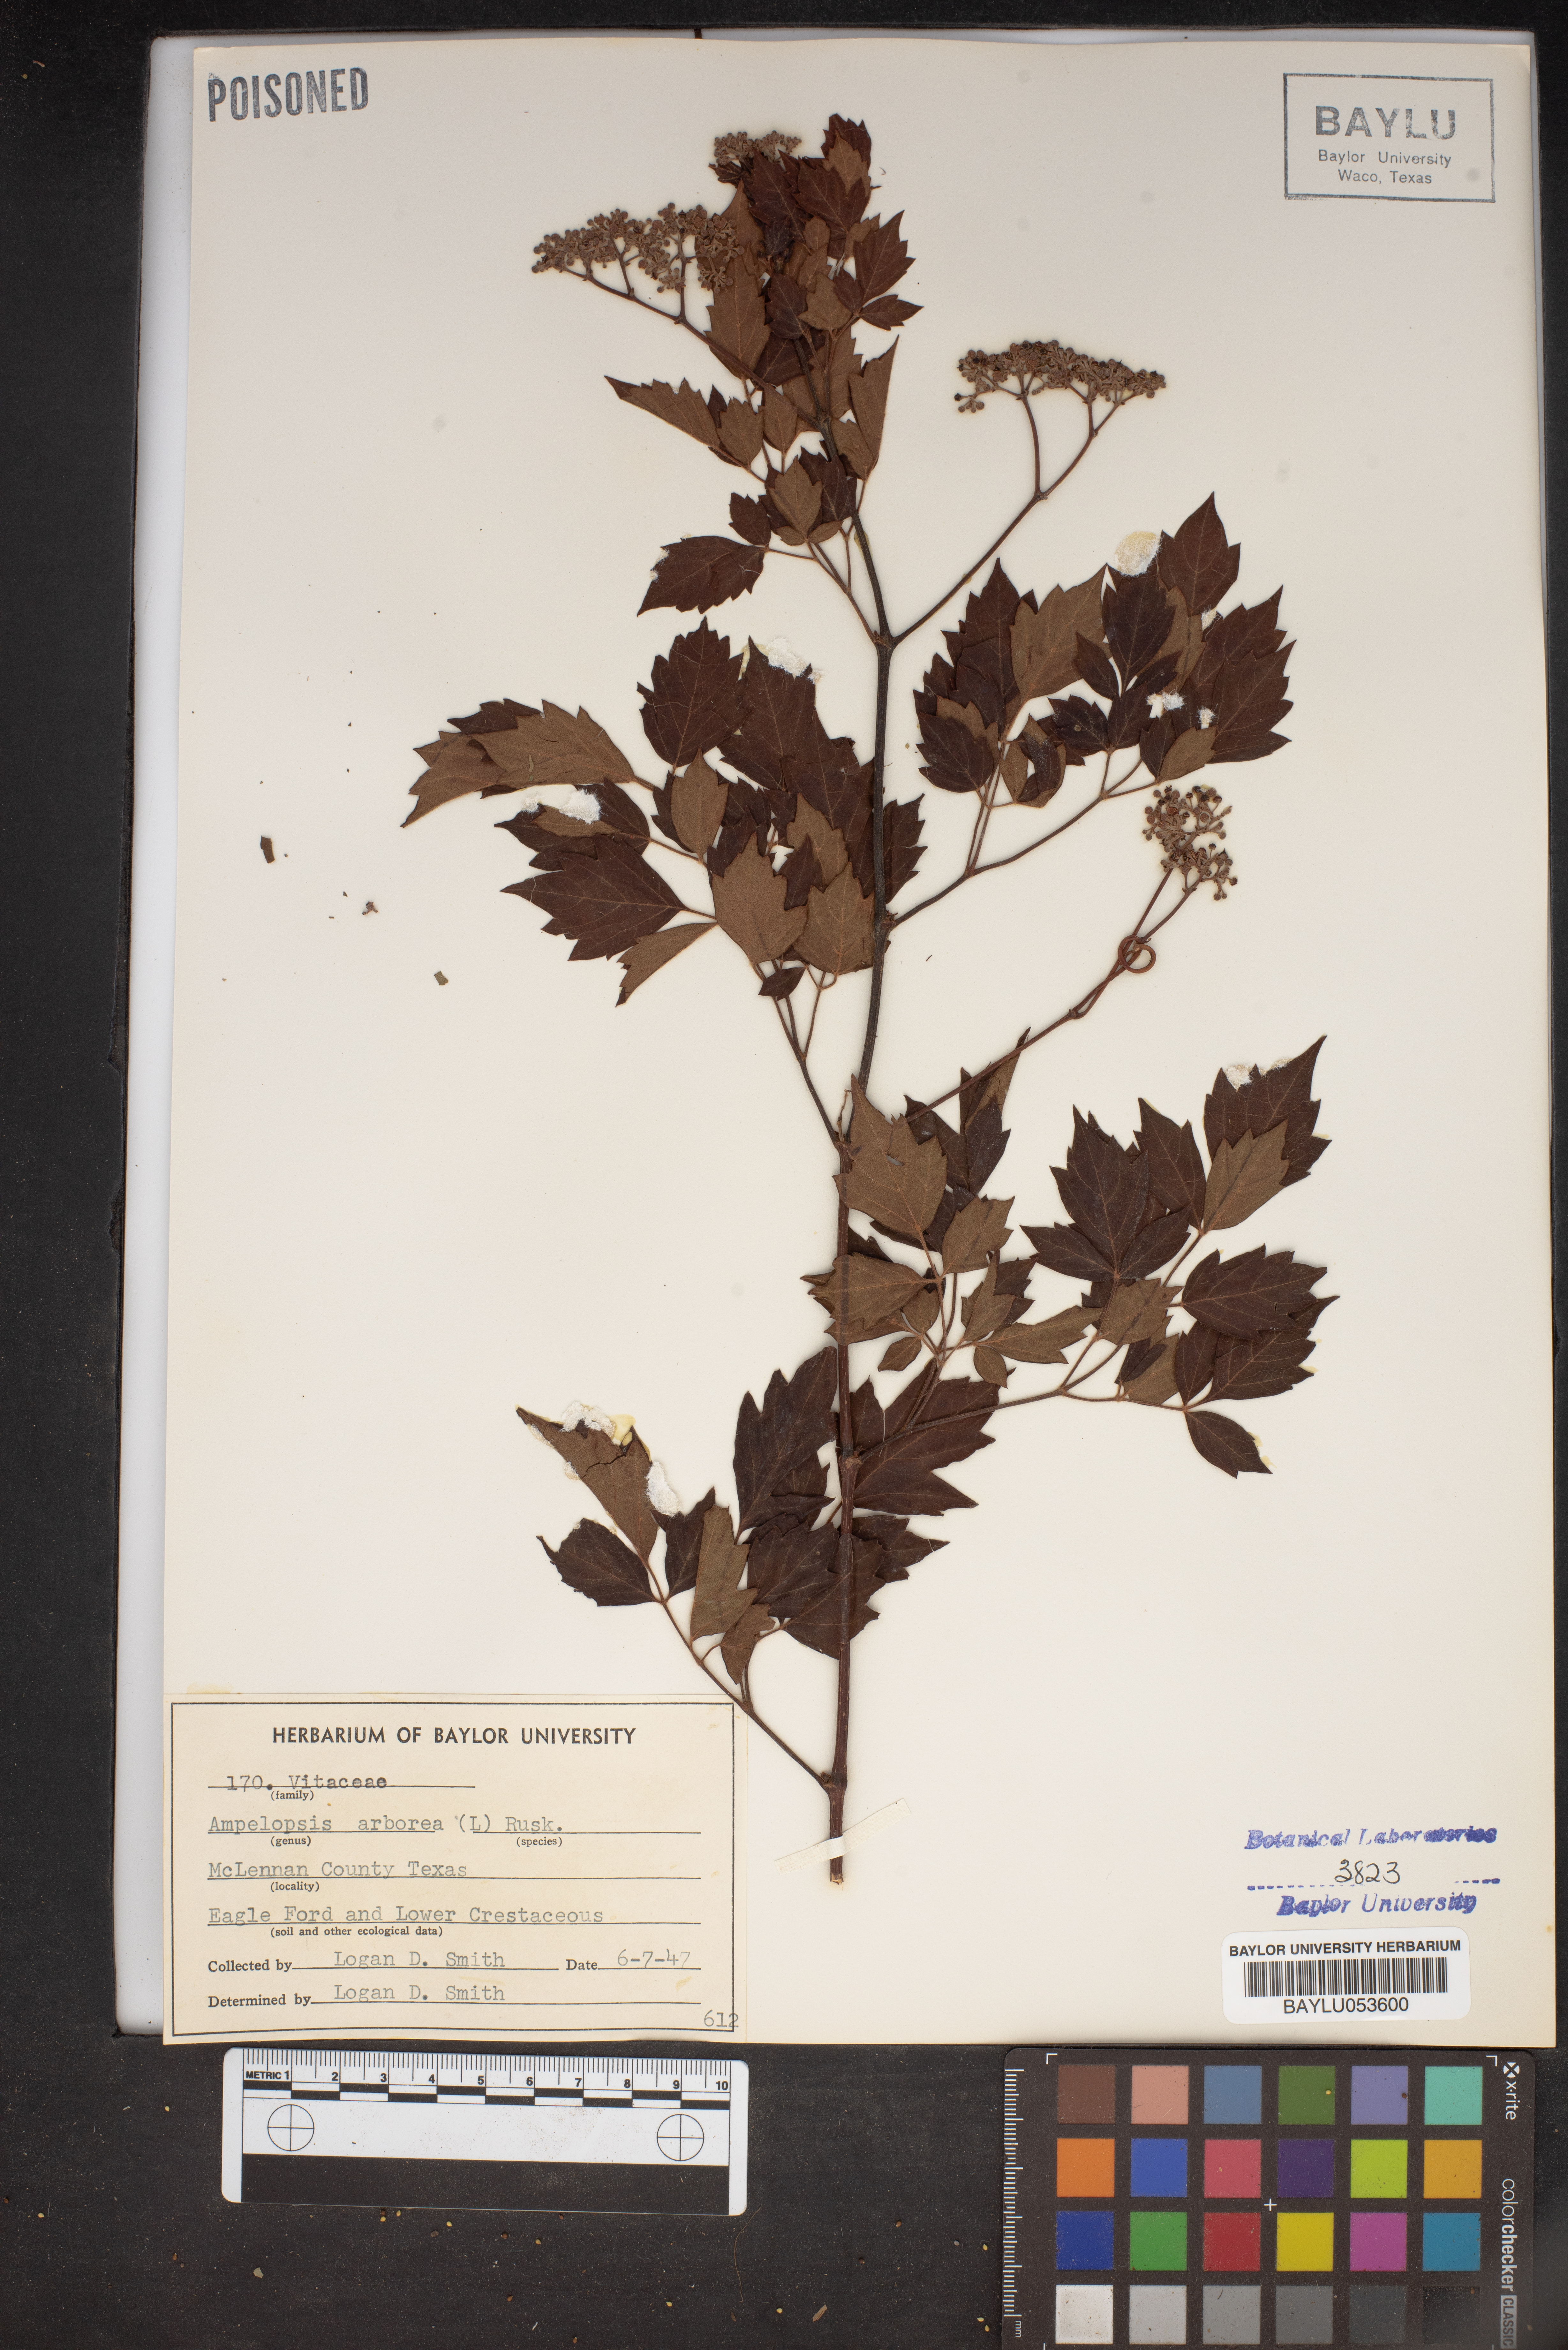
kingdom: Plantae
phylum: Tracheophyta
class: Magnoliopsida
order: Vitales
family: Vitaceae
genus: Nekemias
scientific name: Nekemias arborea
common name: Peppervine
